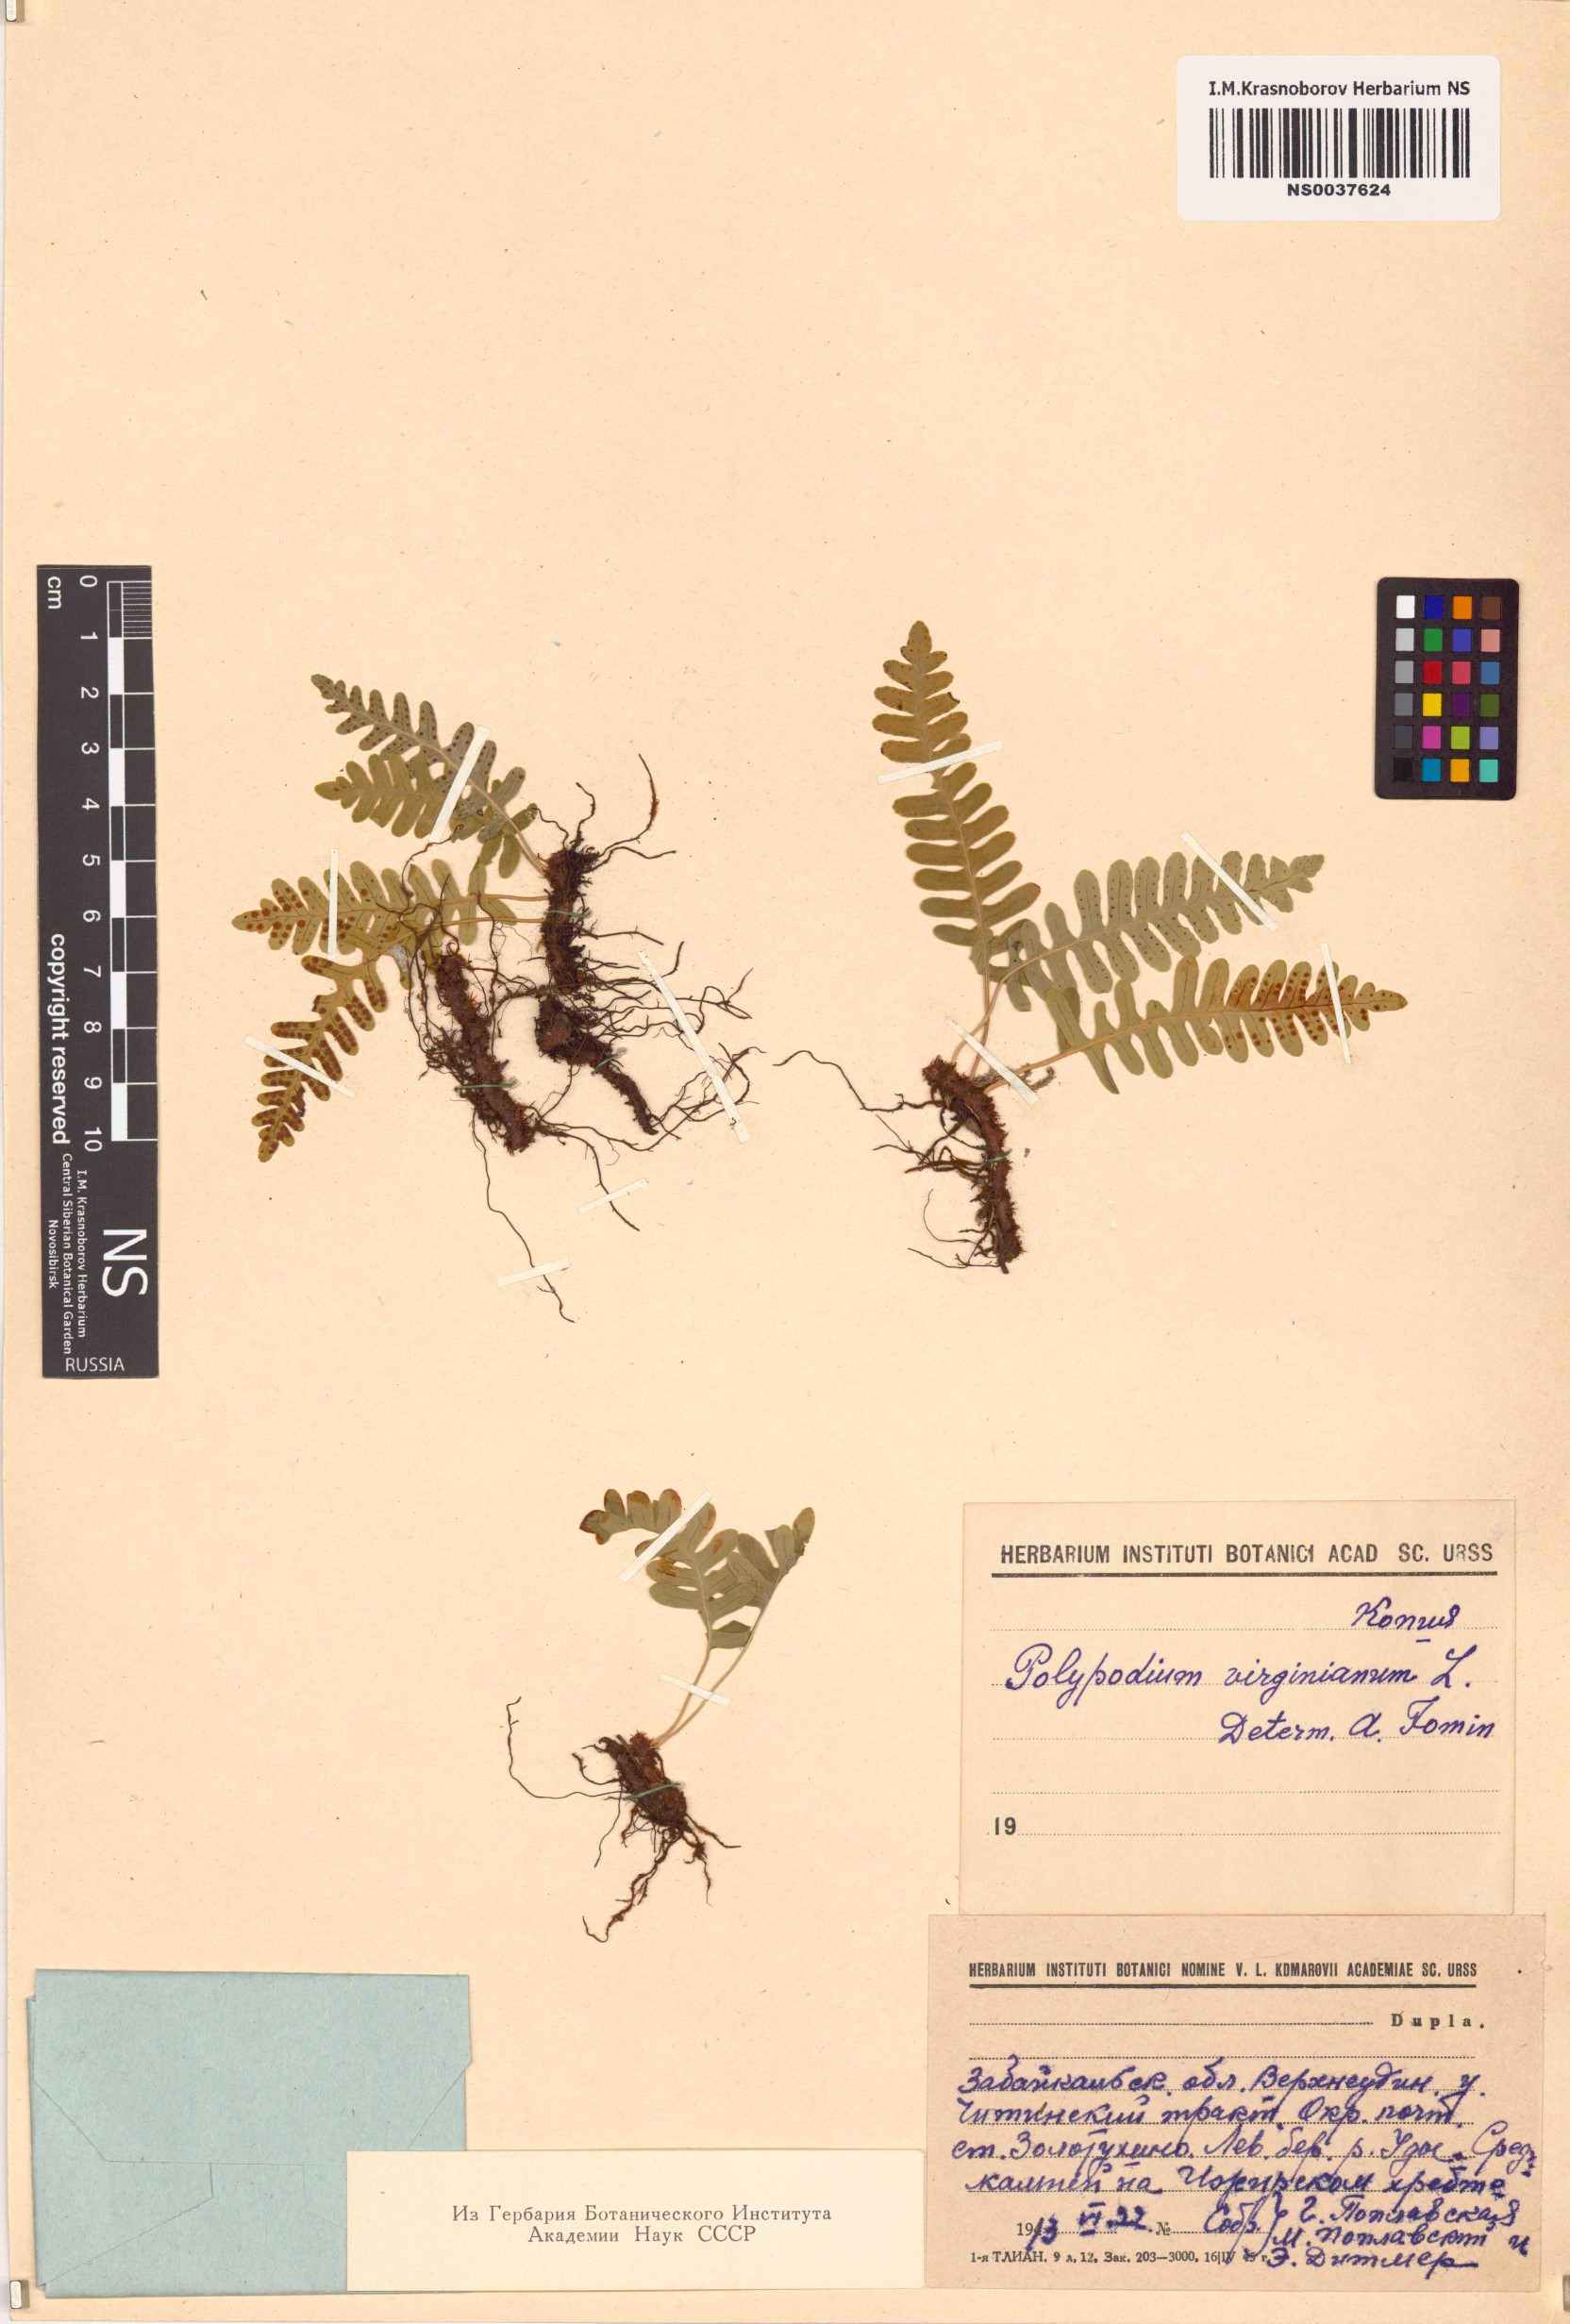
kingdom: Plantae
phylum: Tracheophyta
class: Polypodiopsida
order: Polypodiales
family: Polypodiaceae
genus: Polypodium
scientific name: Polypodium virginianum
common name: American wall fern
